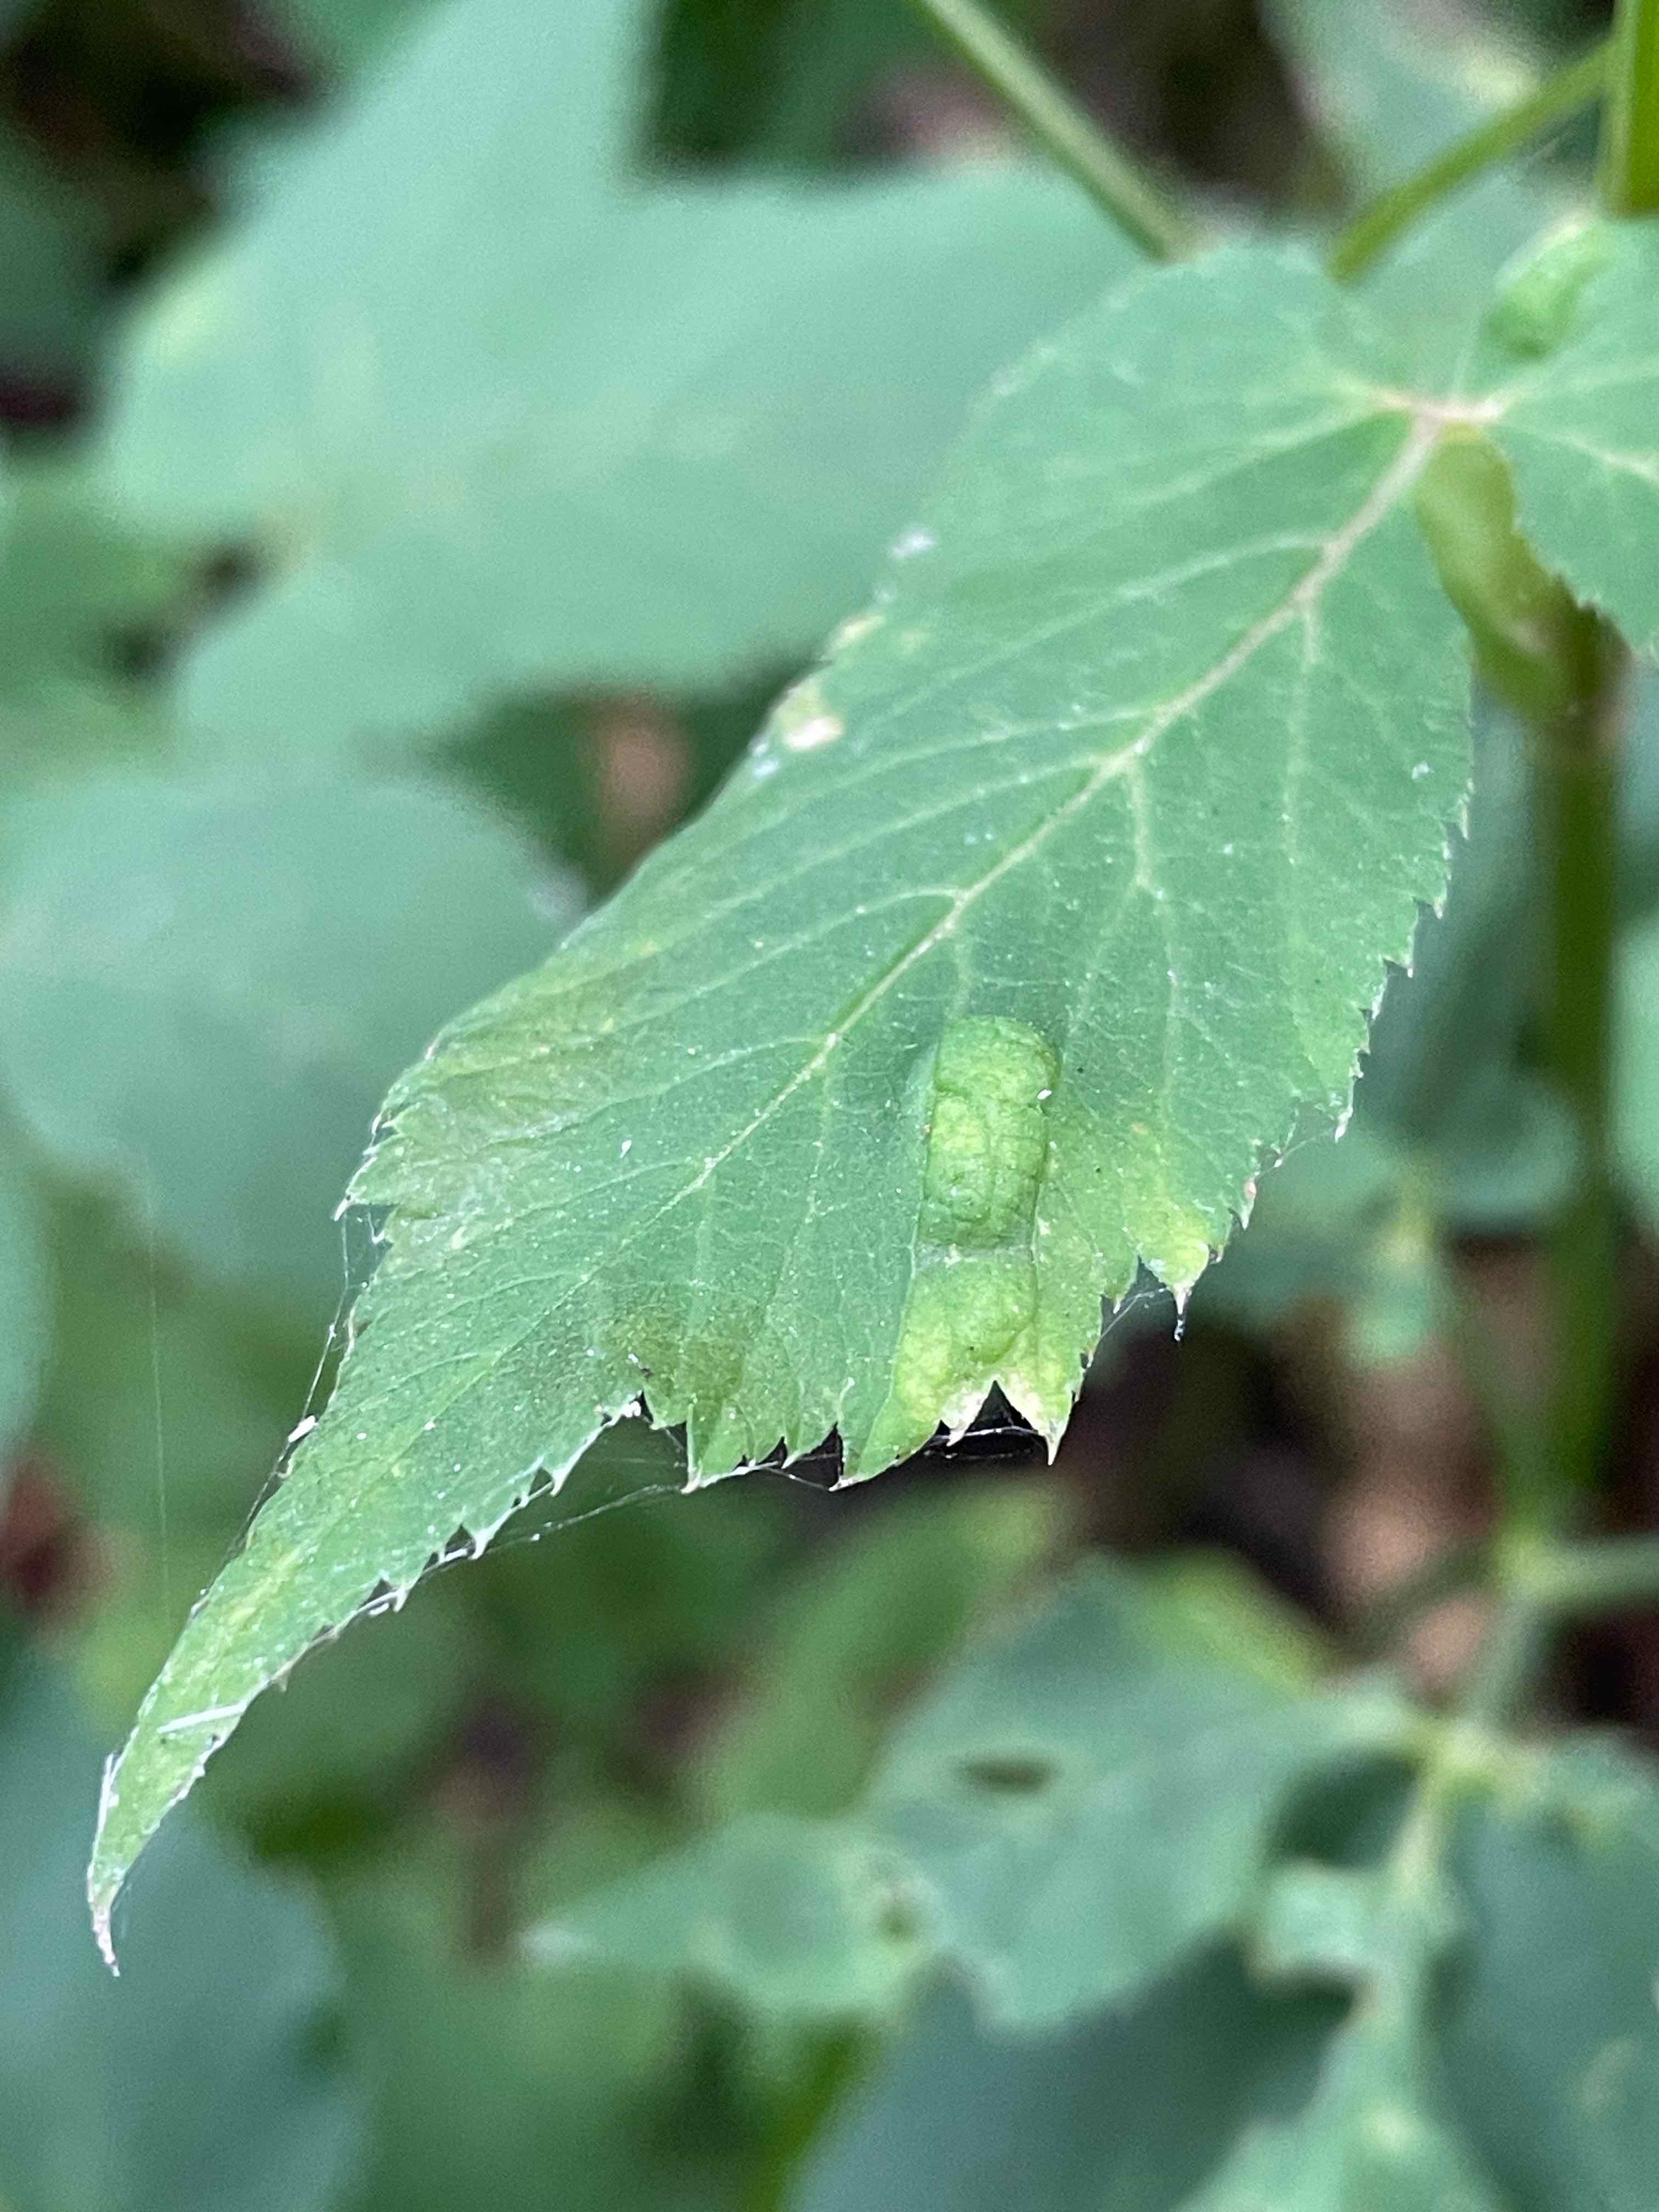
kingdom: Fungi
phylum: Ascomycota
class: Taphrinomycetes
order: Taphrinales
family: Taphrinaceae
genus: Protomyces
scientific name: Protomyces macrosporus
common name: skvalderkål-vablesæk
